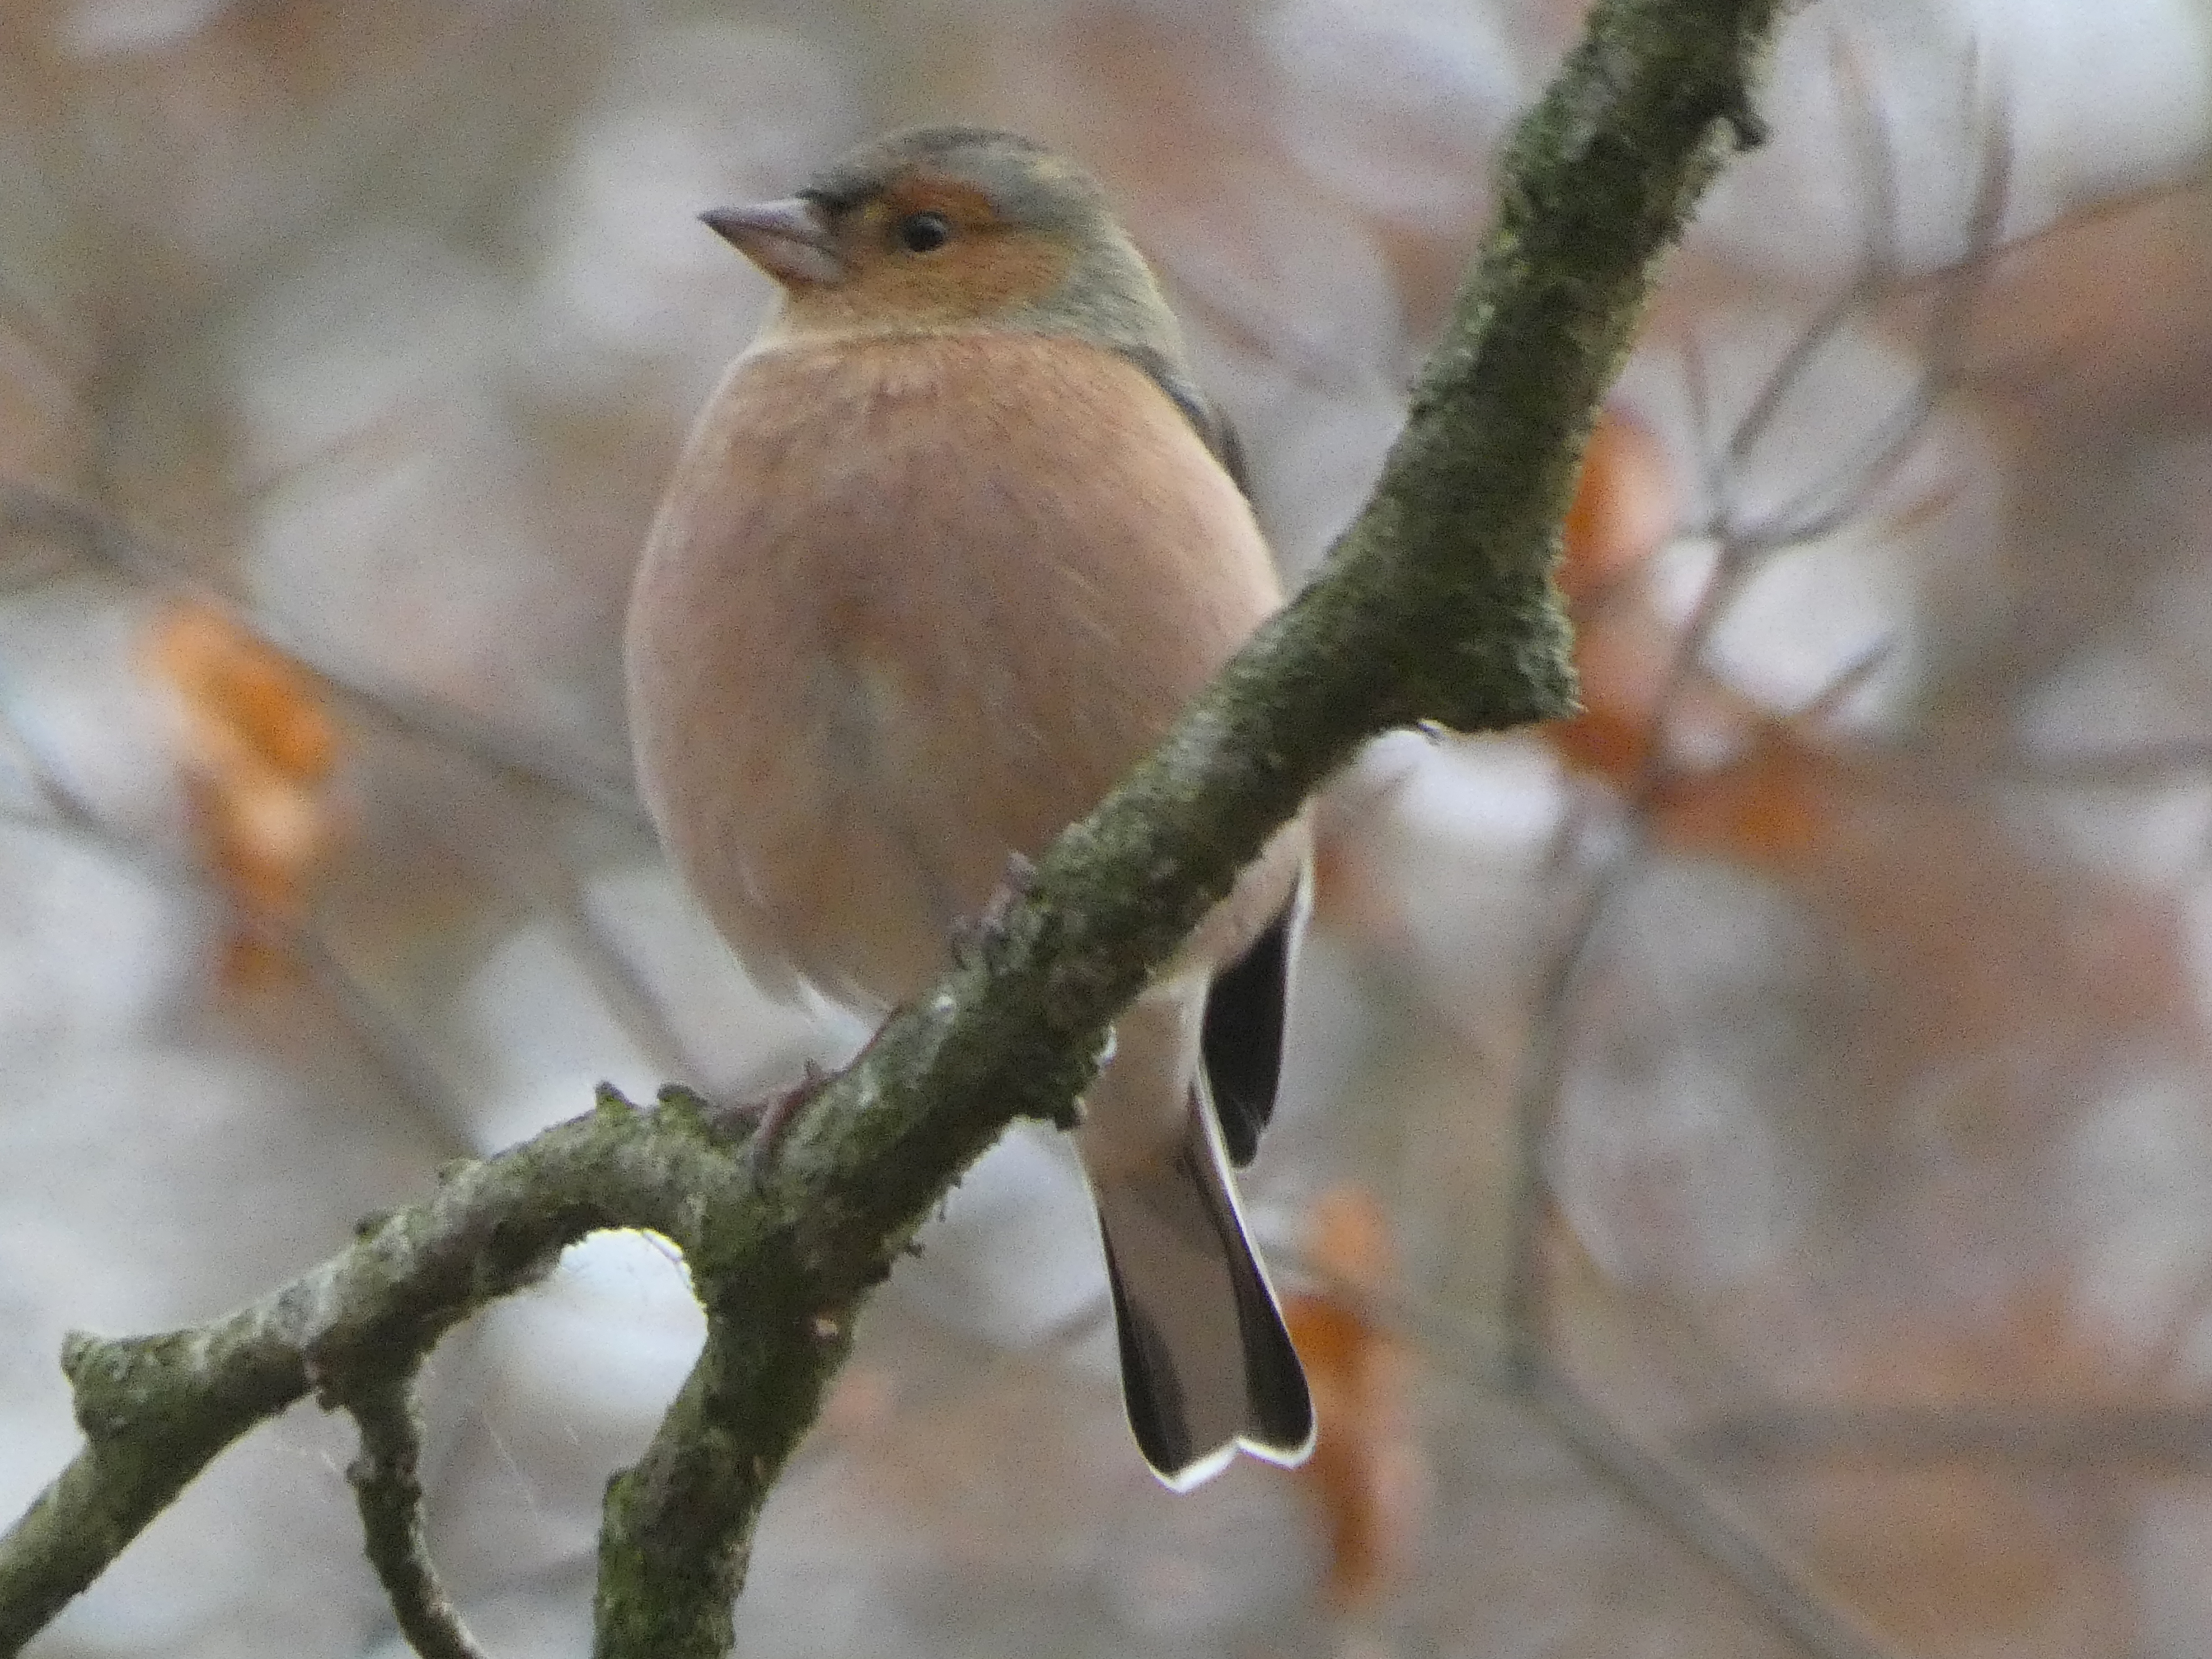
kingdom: Animalia
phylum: Chordata
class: Aves
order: Passeriformes
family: Fringillidae
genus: Fringilla
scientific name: Fringilla coelebs
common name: Bogfinke
